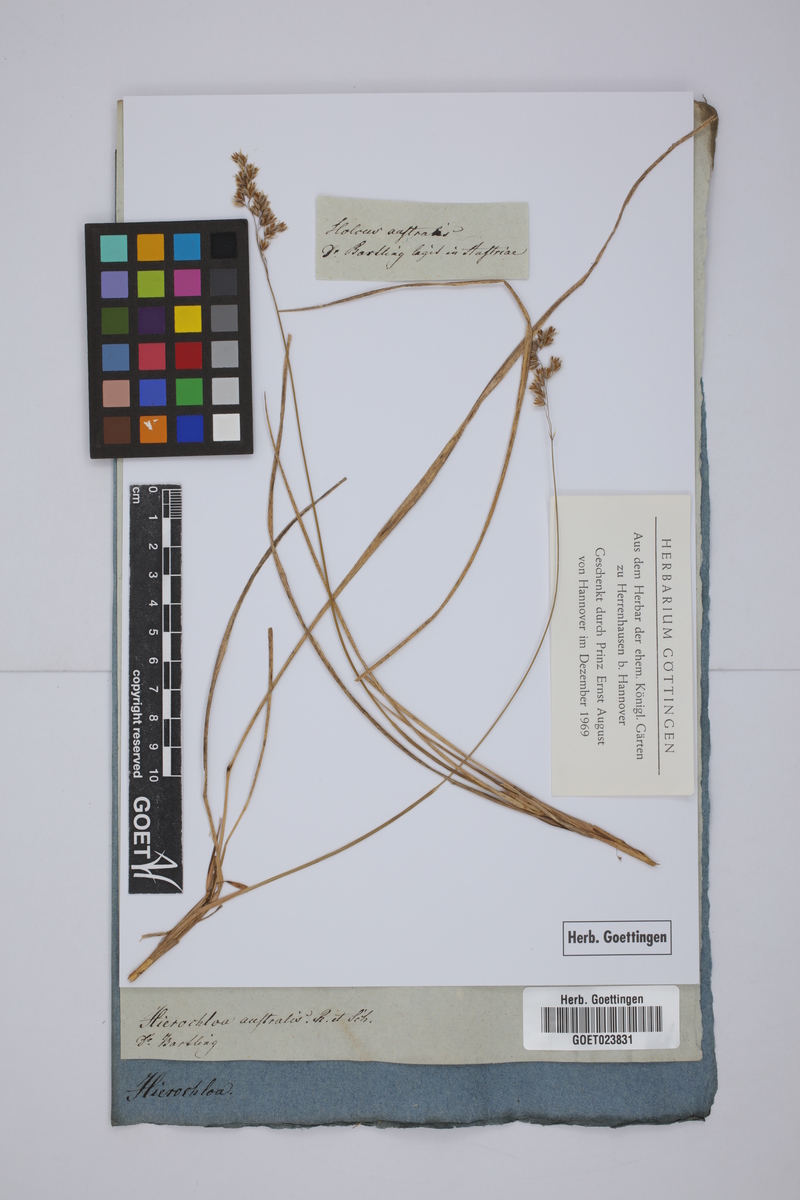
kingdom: Plantae
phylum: Tracheophyta
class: Liliopsida
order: Poales
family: Poaceae
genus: Anthoxanthum
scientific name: Anthoxanthum australe
